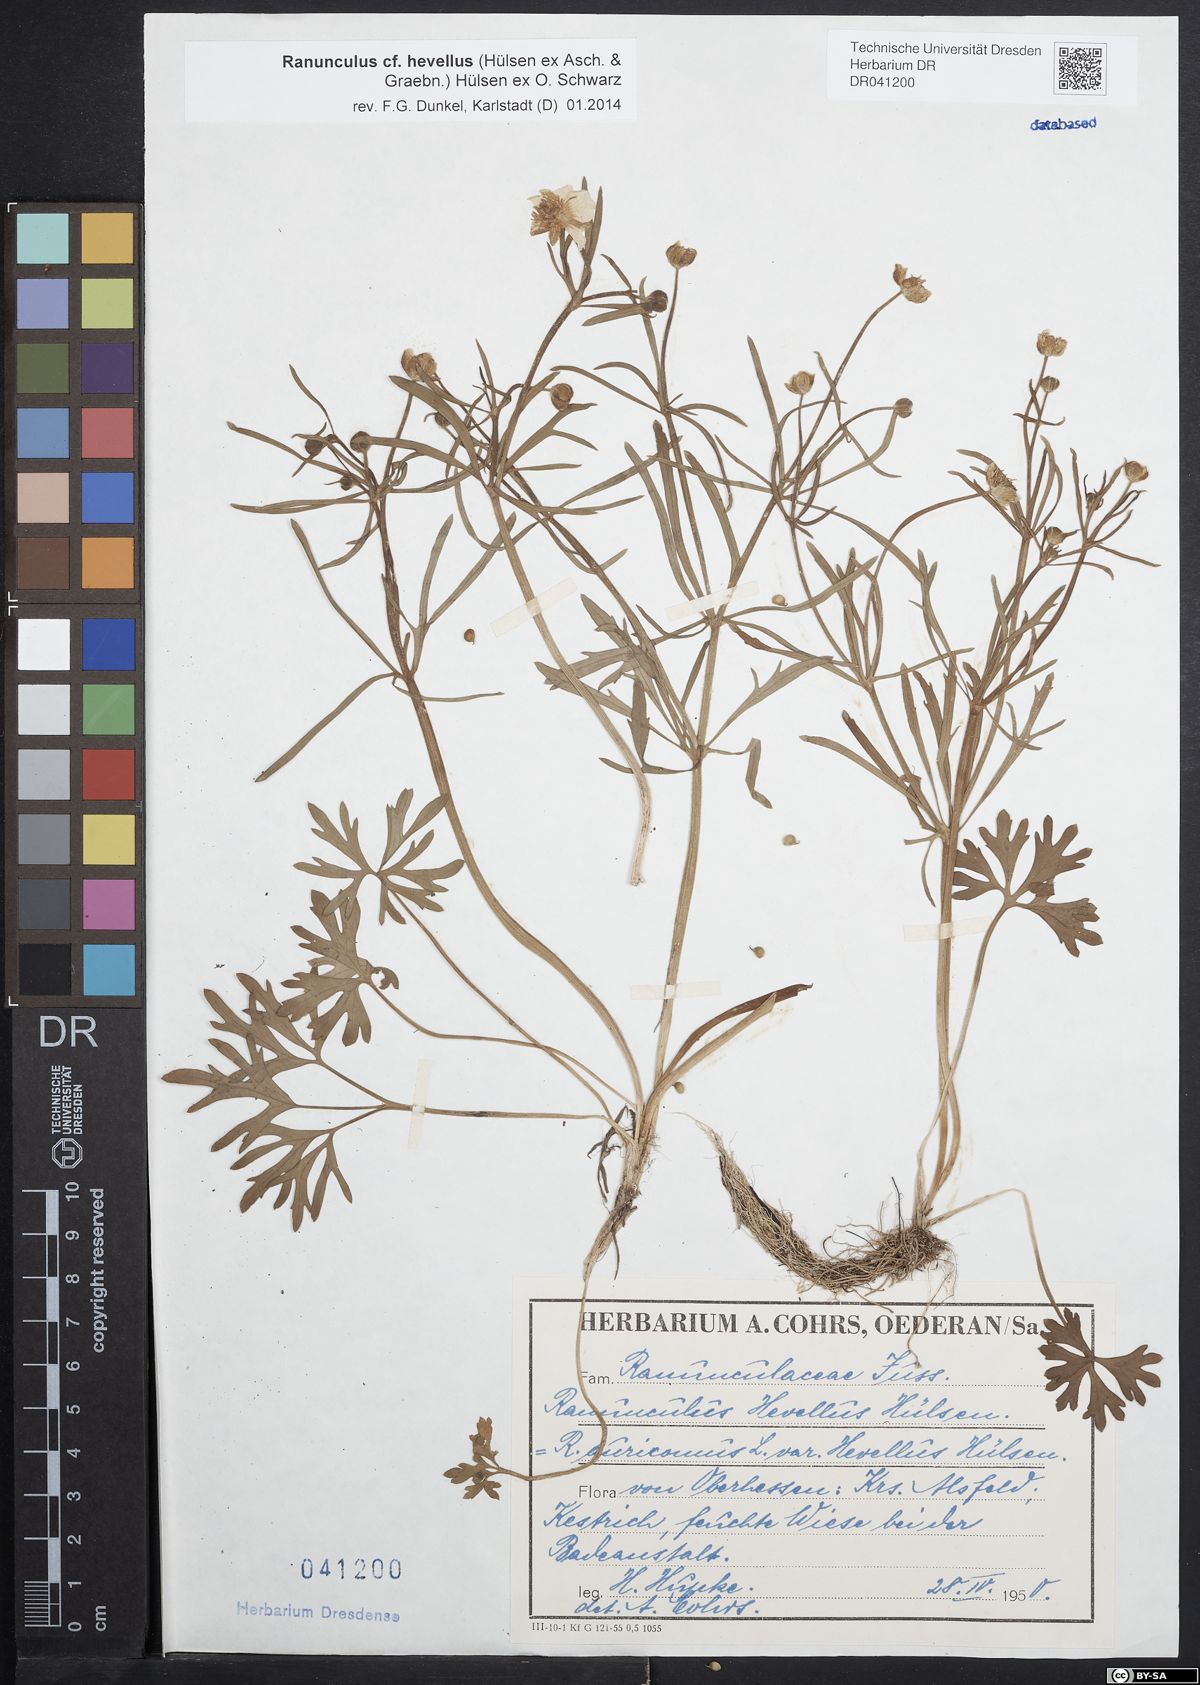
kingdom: Plantae
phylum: Tracheophyta
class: Magnoliopsida
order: Ranunculales
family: Ranunculaceae
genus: Ranunculus
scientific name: Ranunculus hevellus
